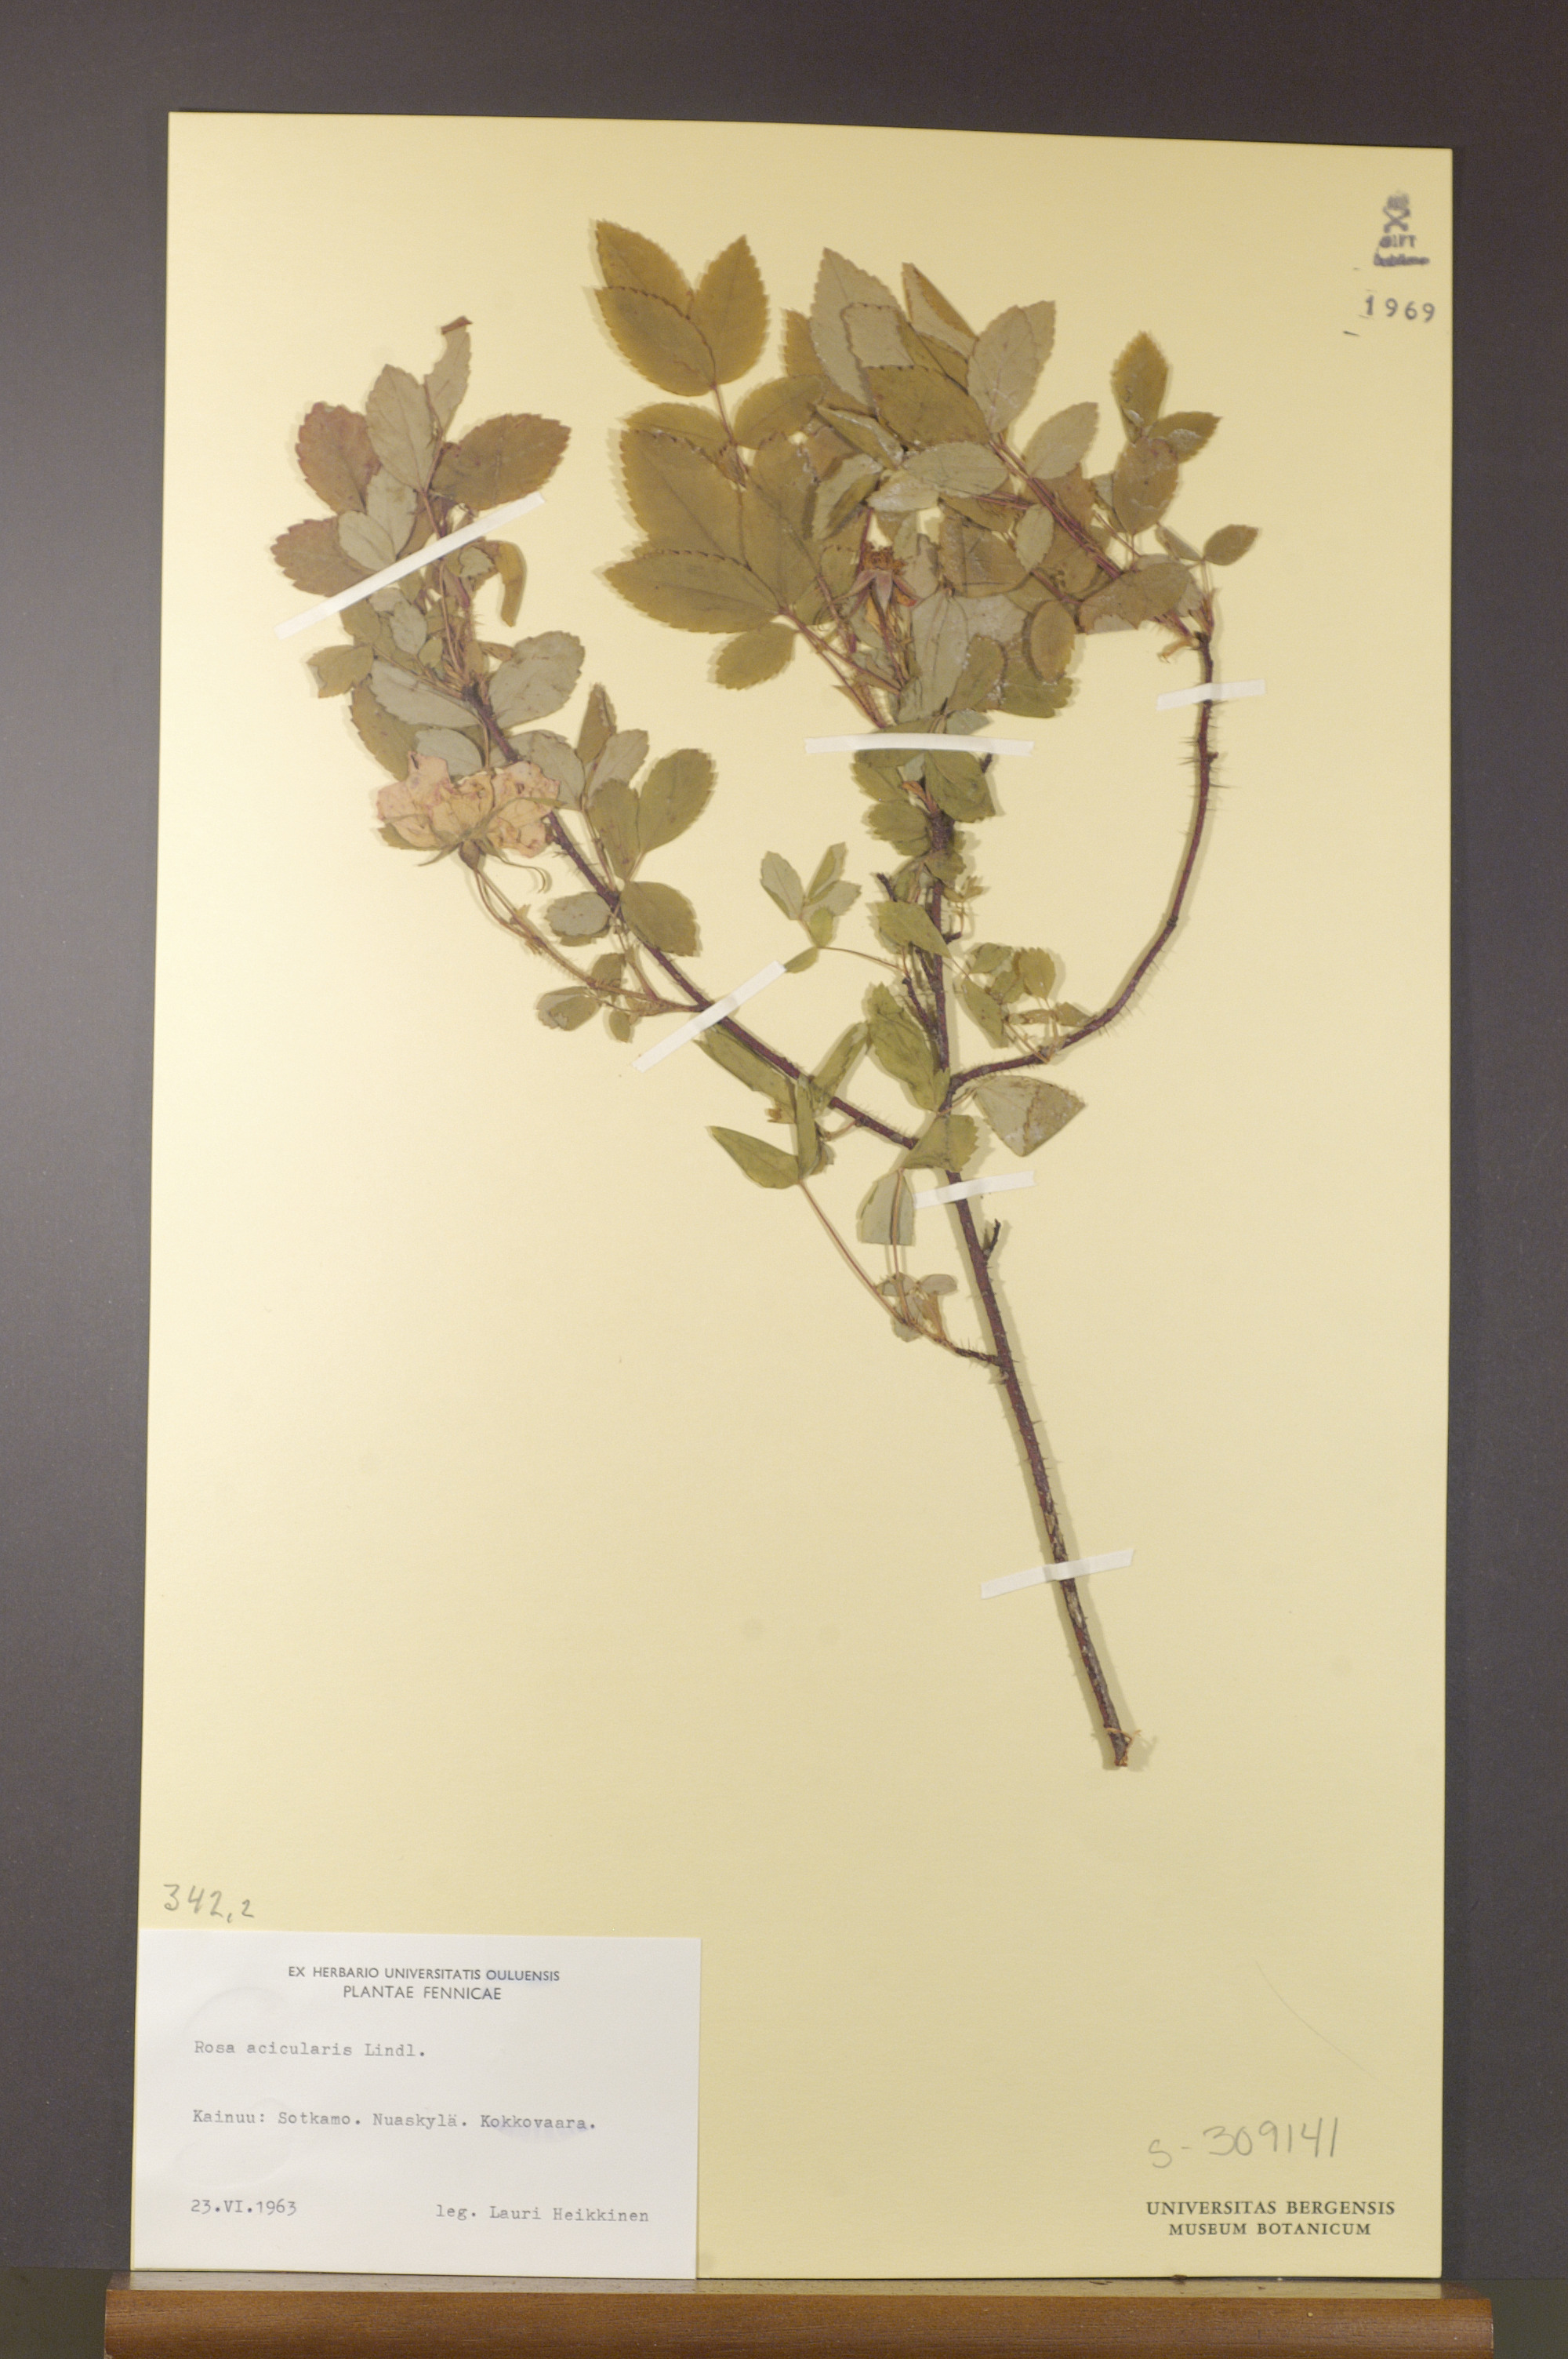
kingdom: Plantae
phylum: Tracheophyta
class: Magnoliopsida
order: Rosales
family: Rosaceae
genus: Rosa
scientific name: Rosa acicularis
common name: Prickly rose
